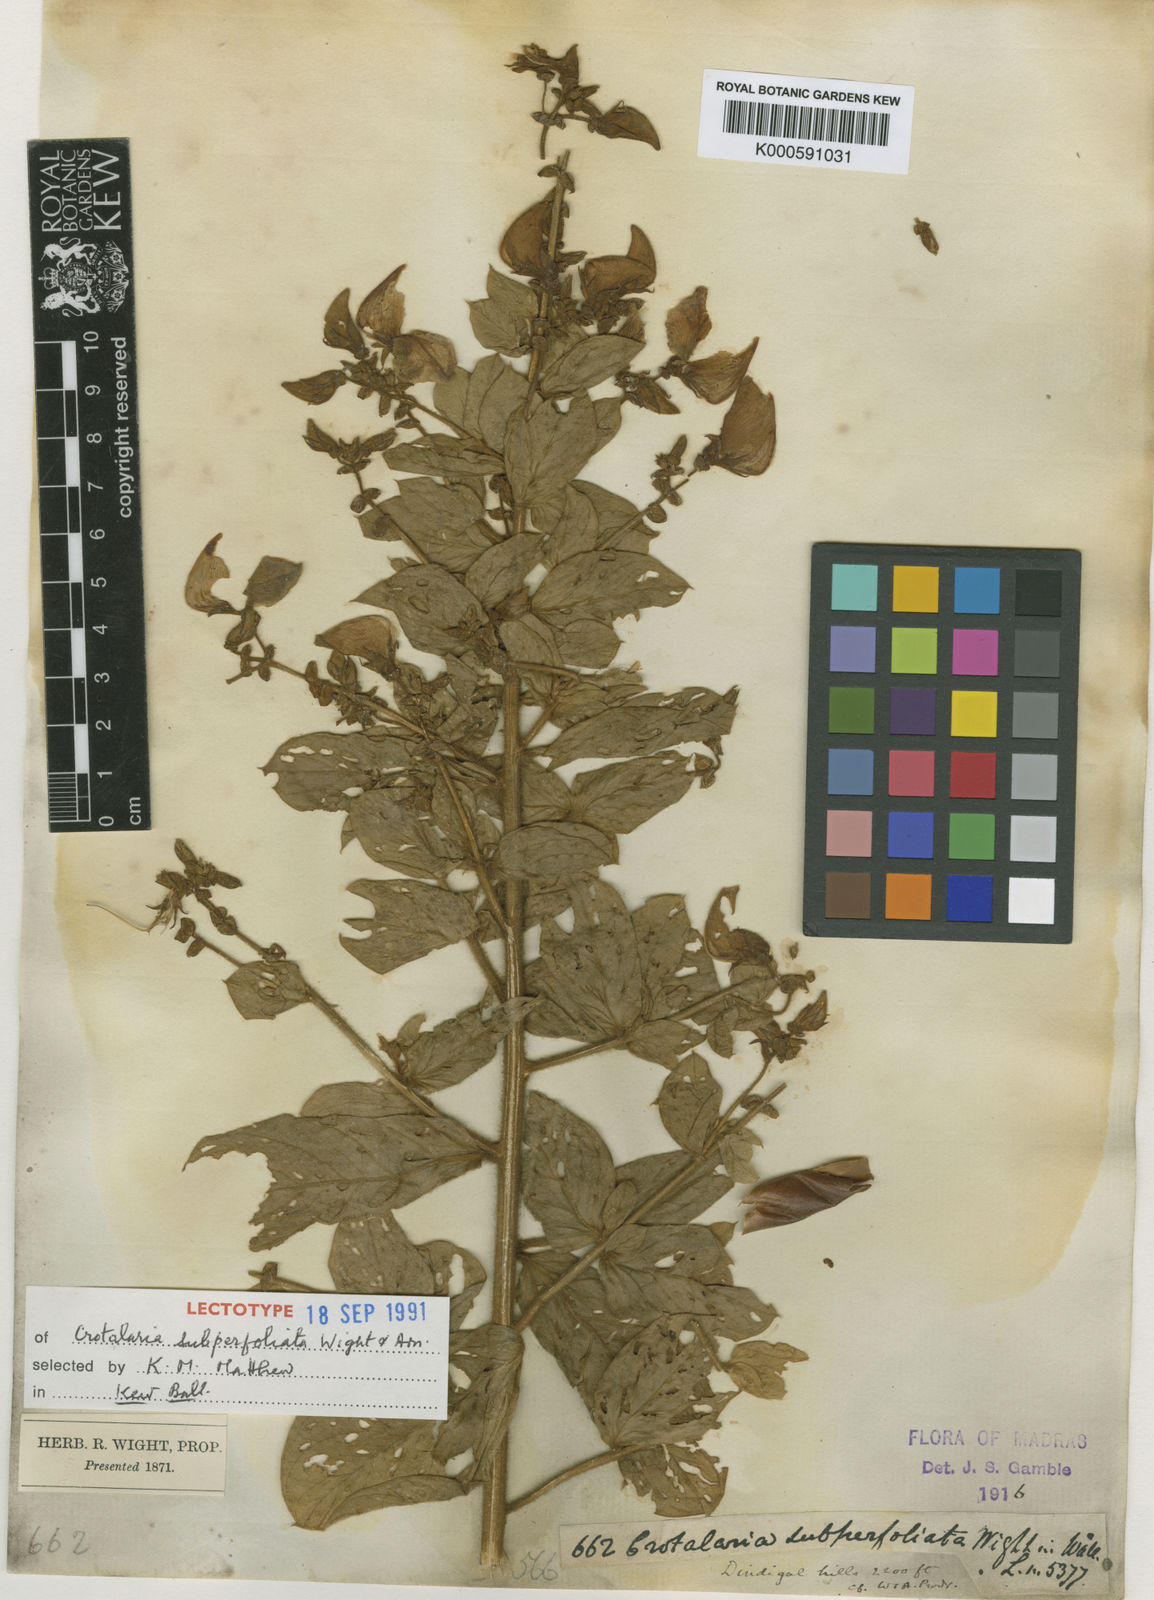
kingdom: Plantae
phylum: Tracheophyta
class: Magnoliopsida
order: Fabales
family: Fabaceae
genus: Crotalaria
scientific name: Crotalaria
